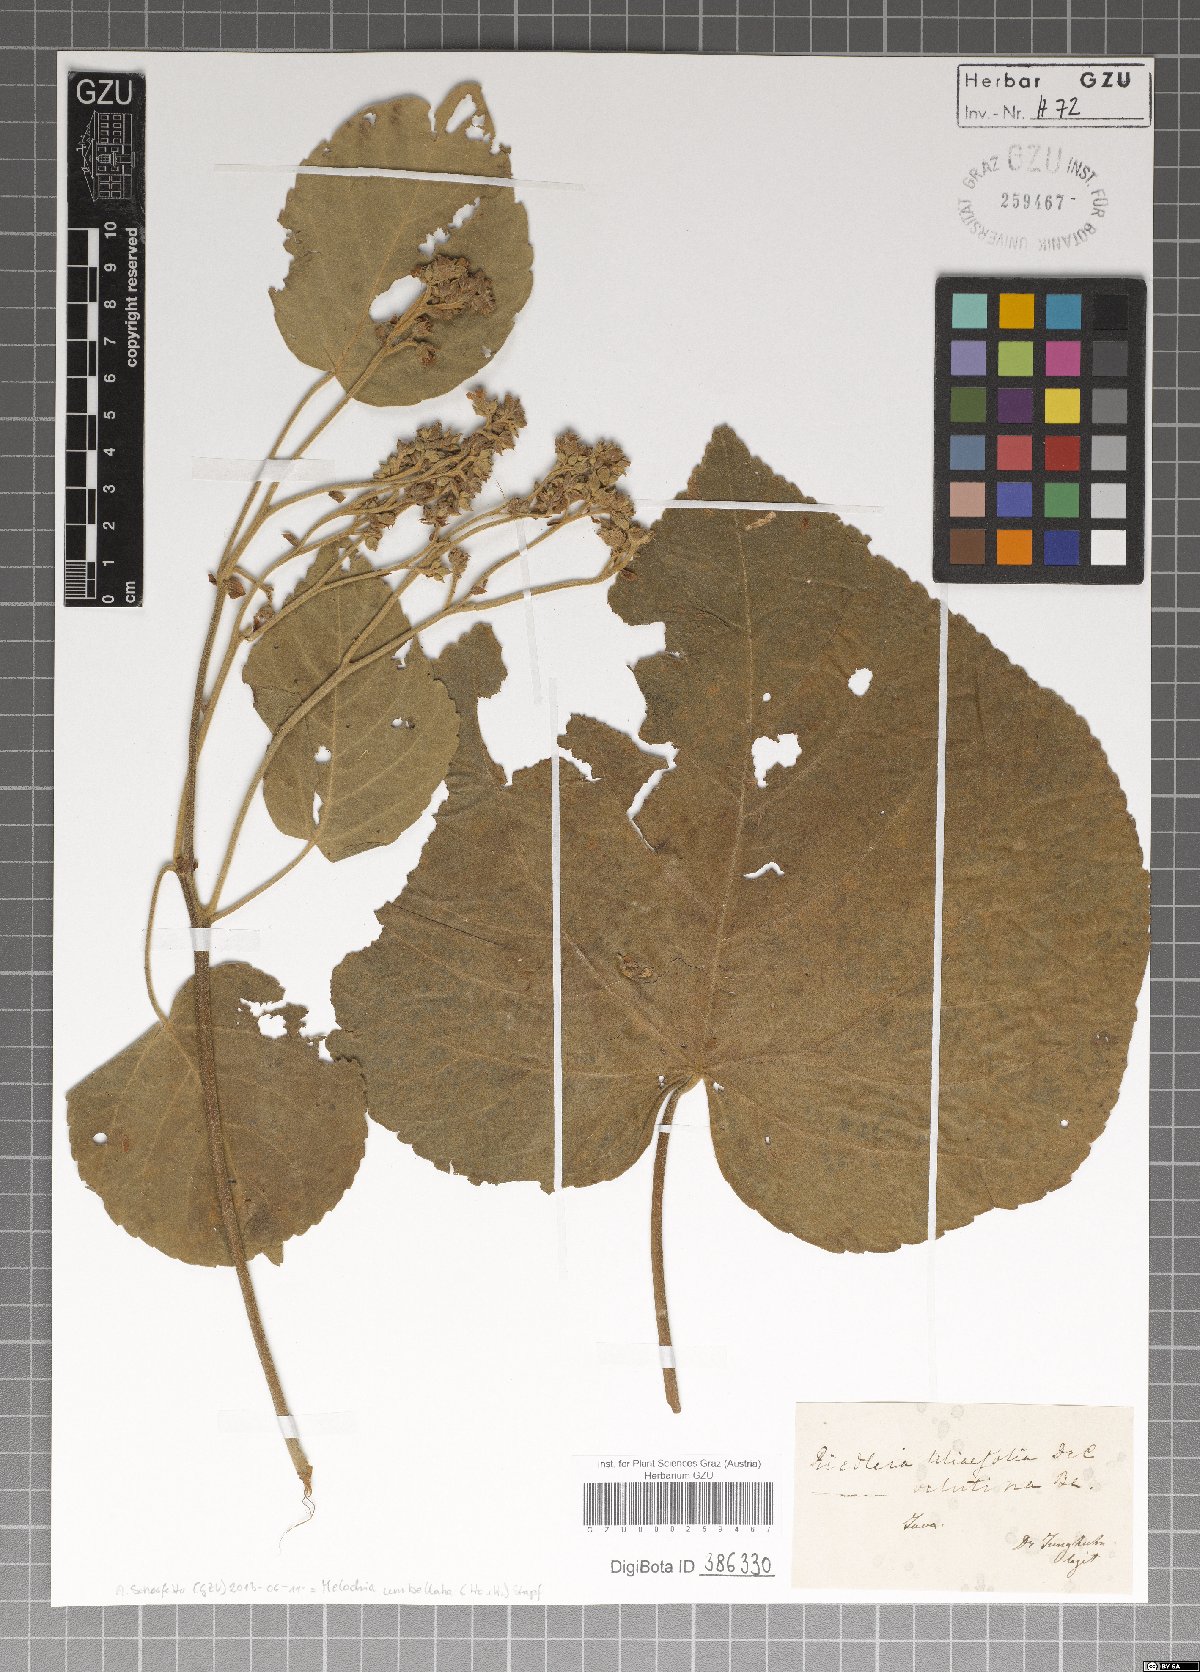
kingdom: Plantae
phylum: Tracheophyta
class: Magnoliopsida
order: Malvales
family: Malvaceae
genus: Melochia
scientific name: Melochia umbellata
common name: Gunpowder tree
